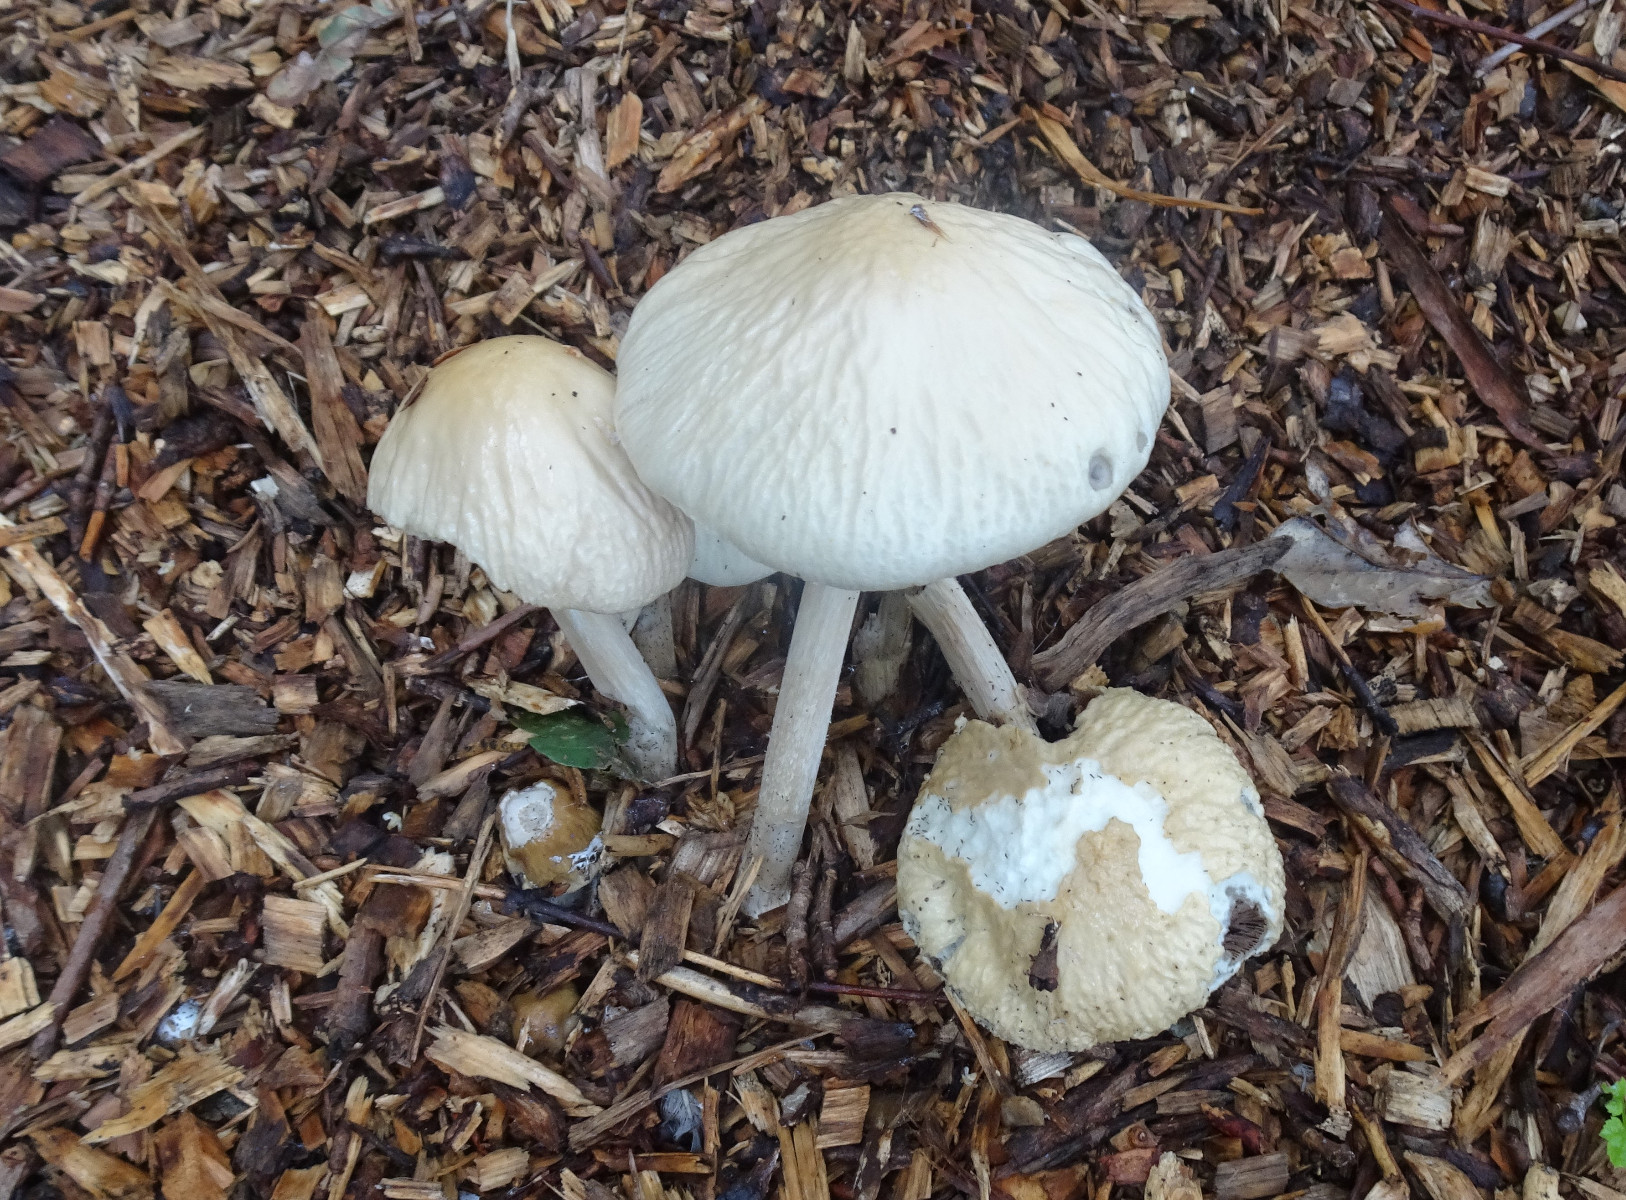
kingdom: Fungi
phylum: Basidiomycota
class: Agaricomycetes
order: Agaricales
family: Strophariaceae
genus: Agrocybe
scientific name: Agrocybe rivulosa
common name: året agerhat
